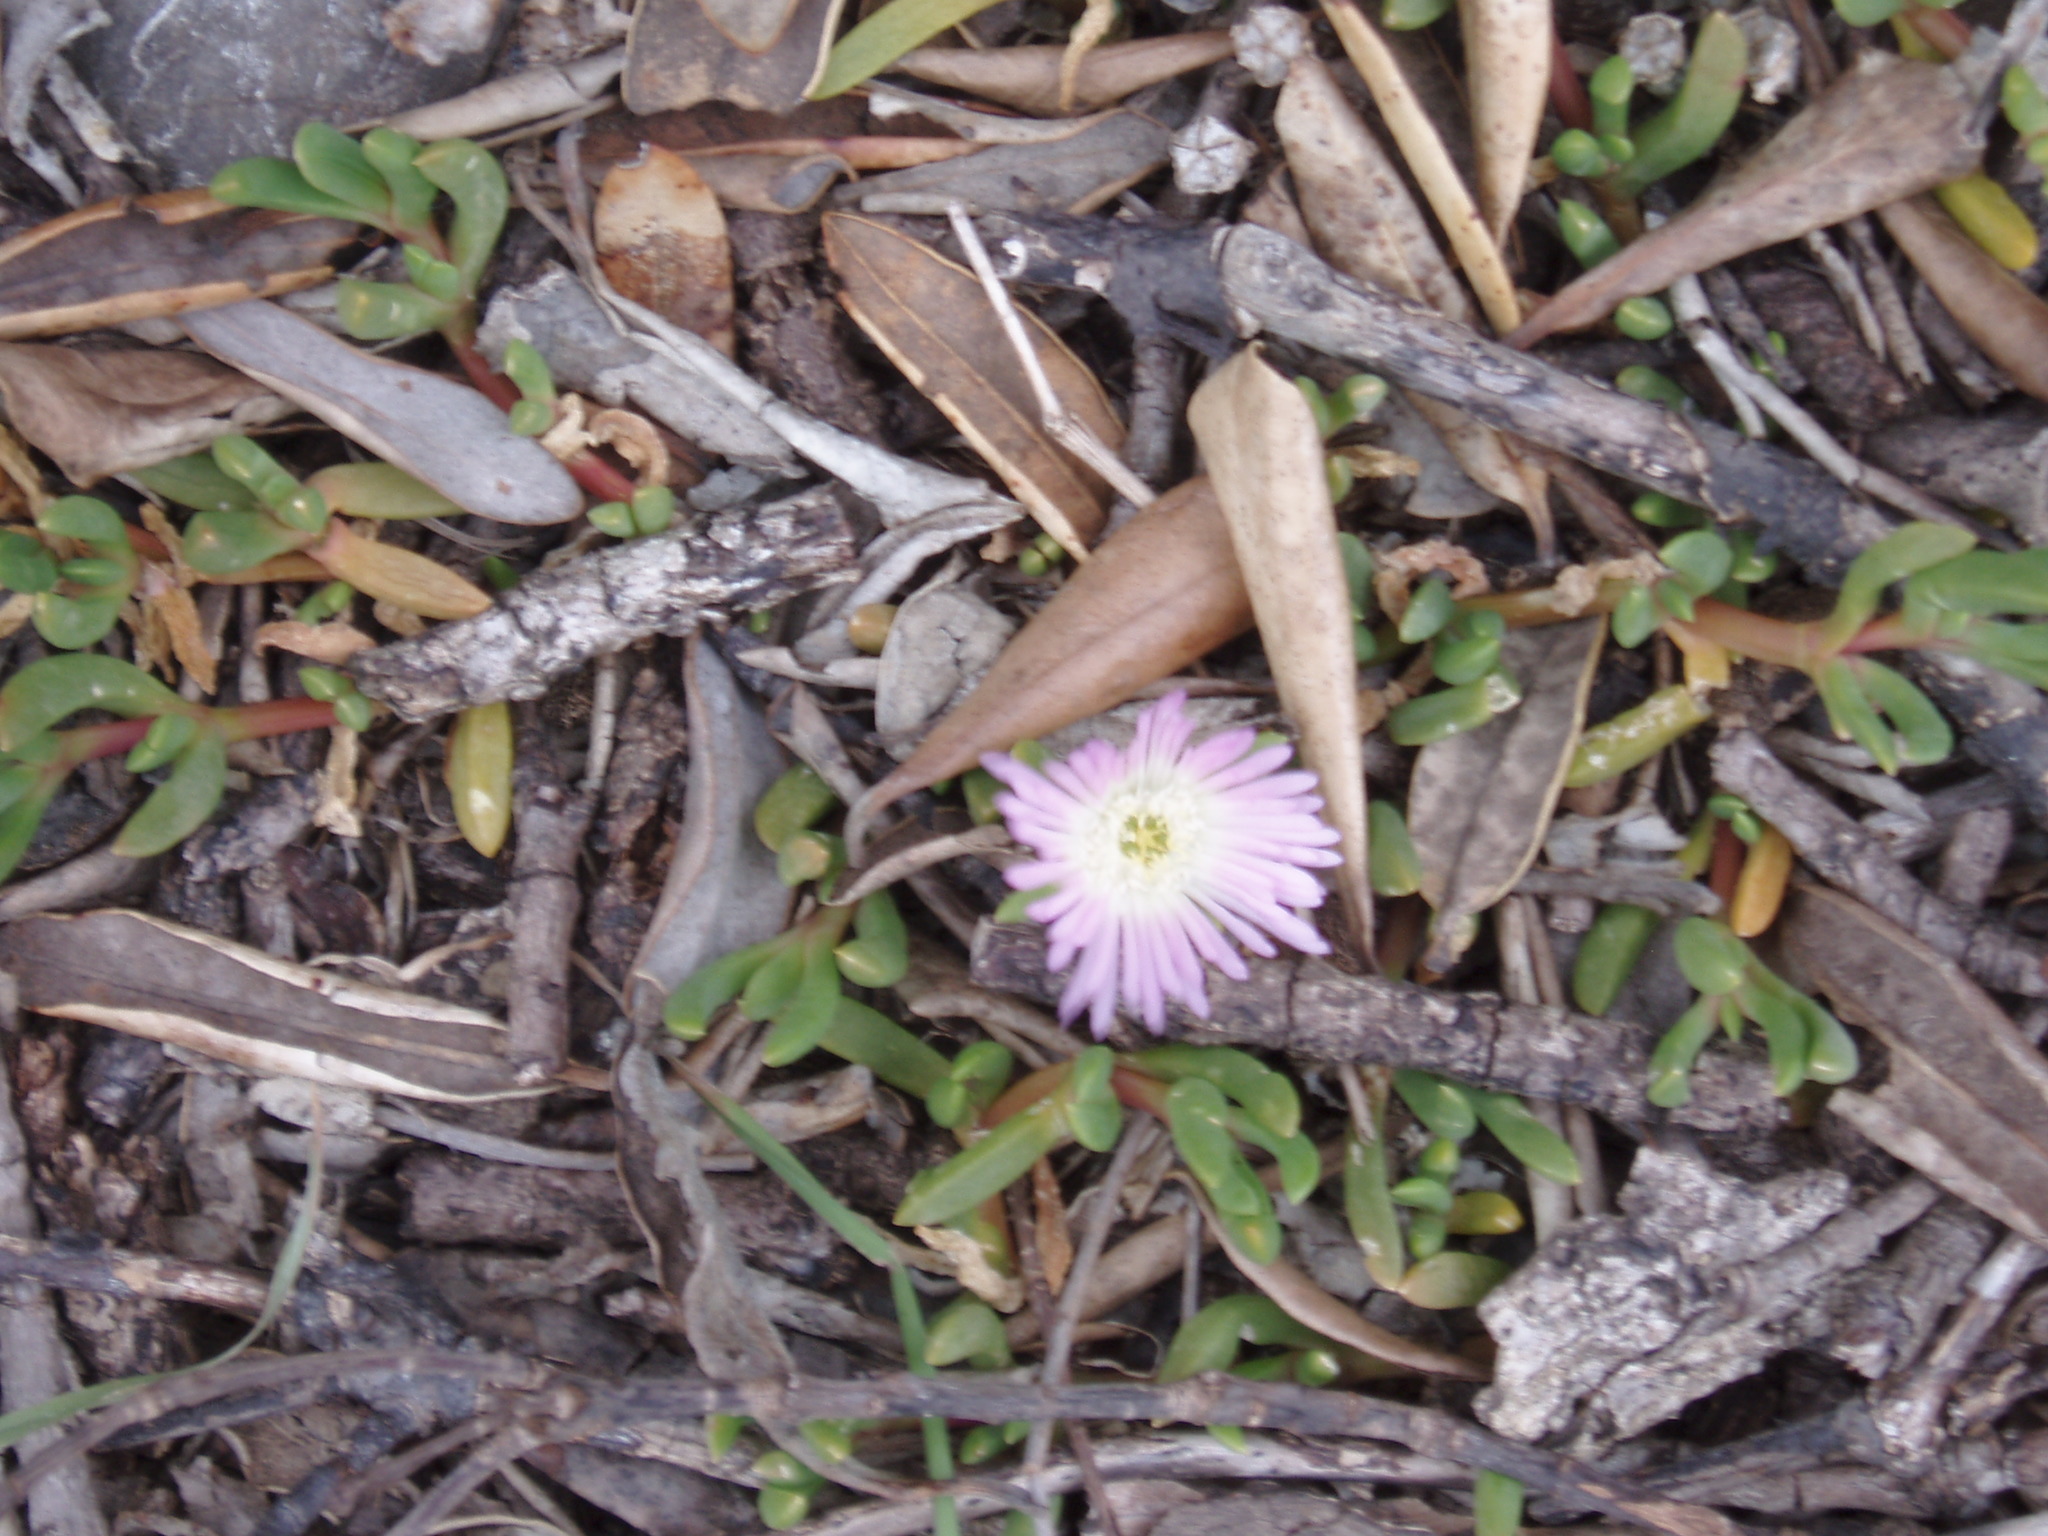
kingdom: Plantae
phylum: Tracheophyta
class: Liliopsida
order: Poales
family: Poaceae
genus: Paspalum
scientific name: Paspalum dilatatum
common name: Dallisgrass
